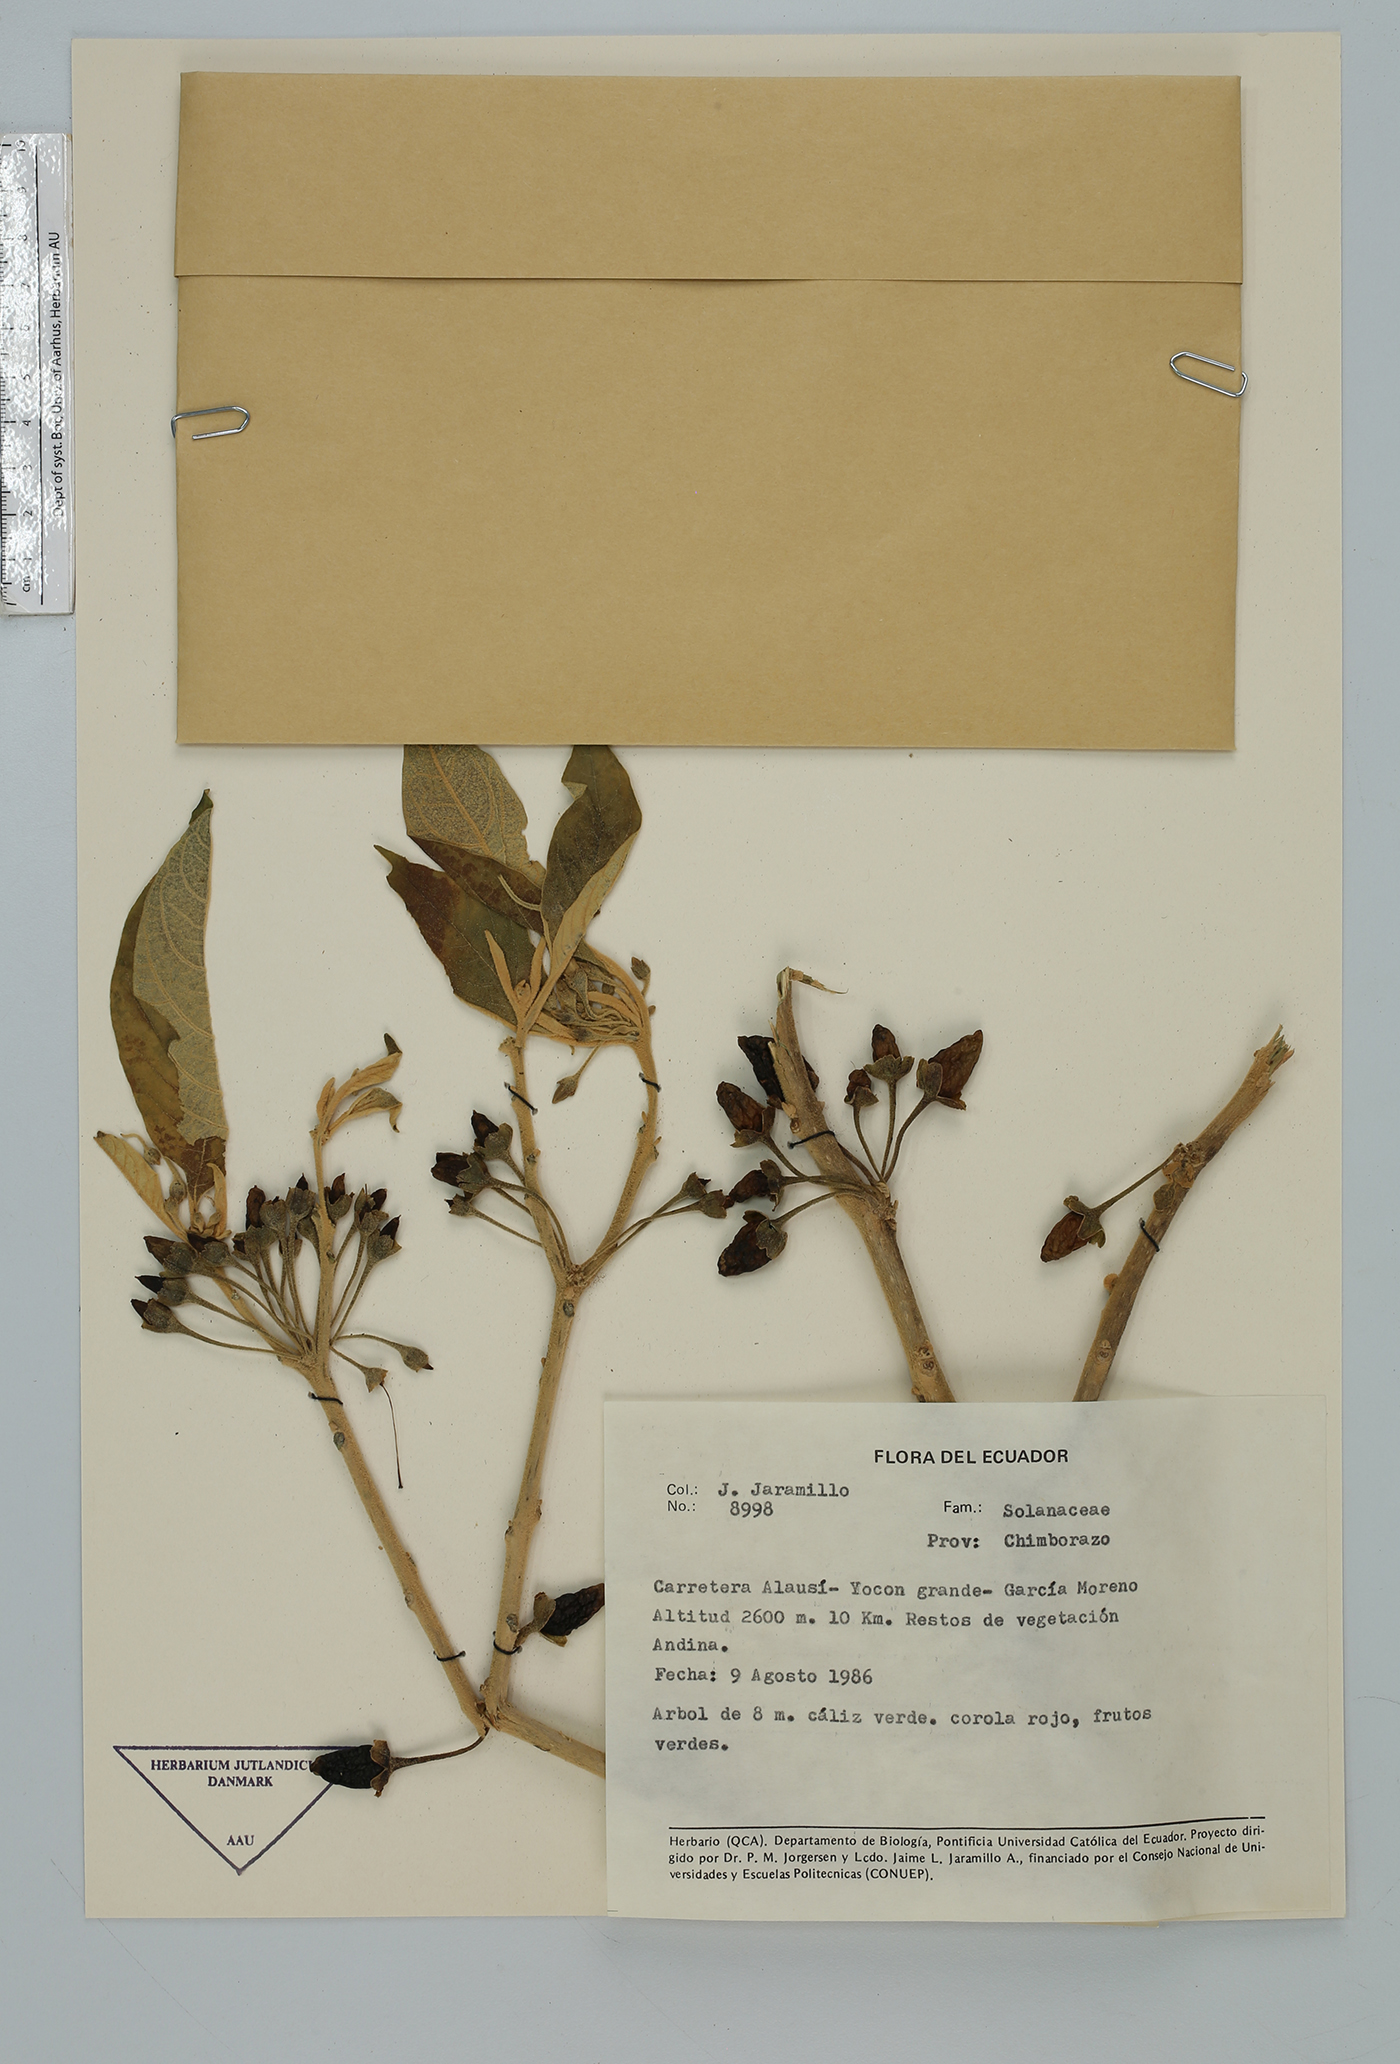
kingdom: Plantae
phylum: Tracheophyta
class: Magnoliopsida
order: Solanales
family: Solanaceae
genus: Solanum
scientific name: Solanum
